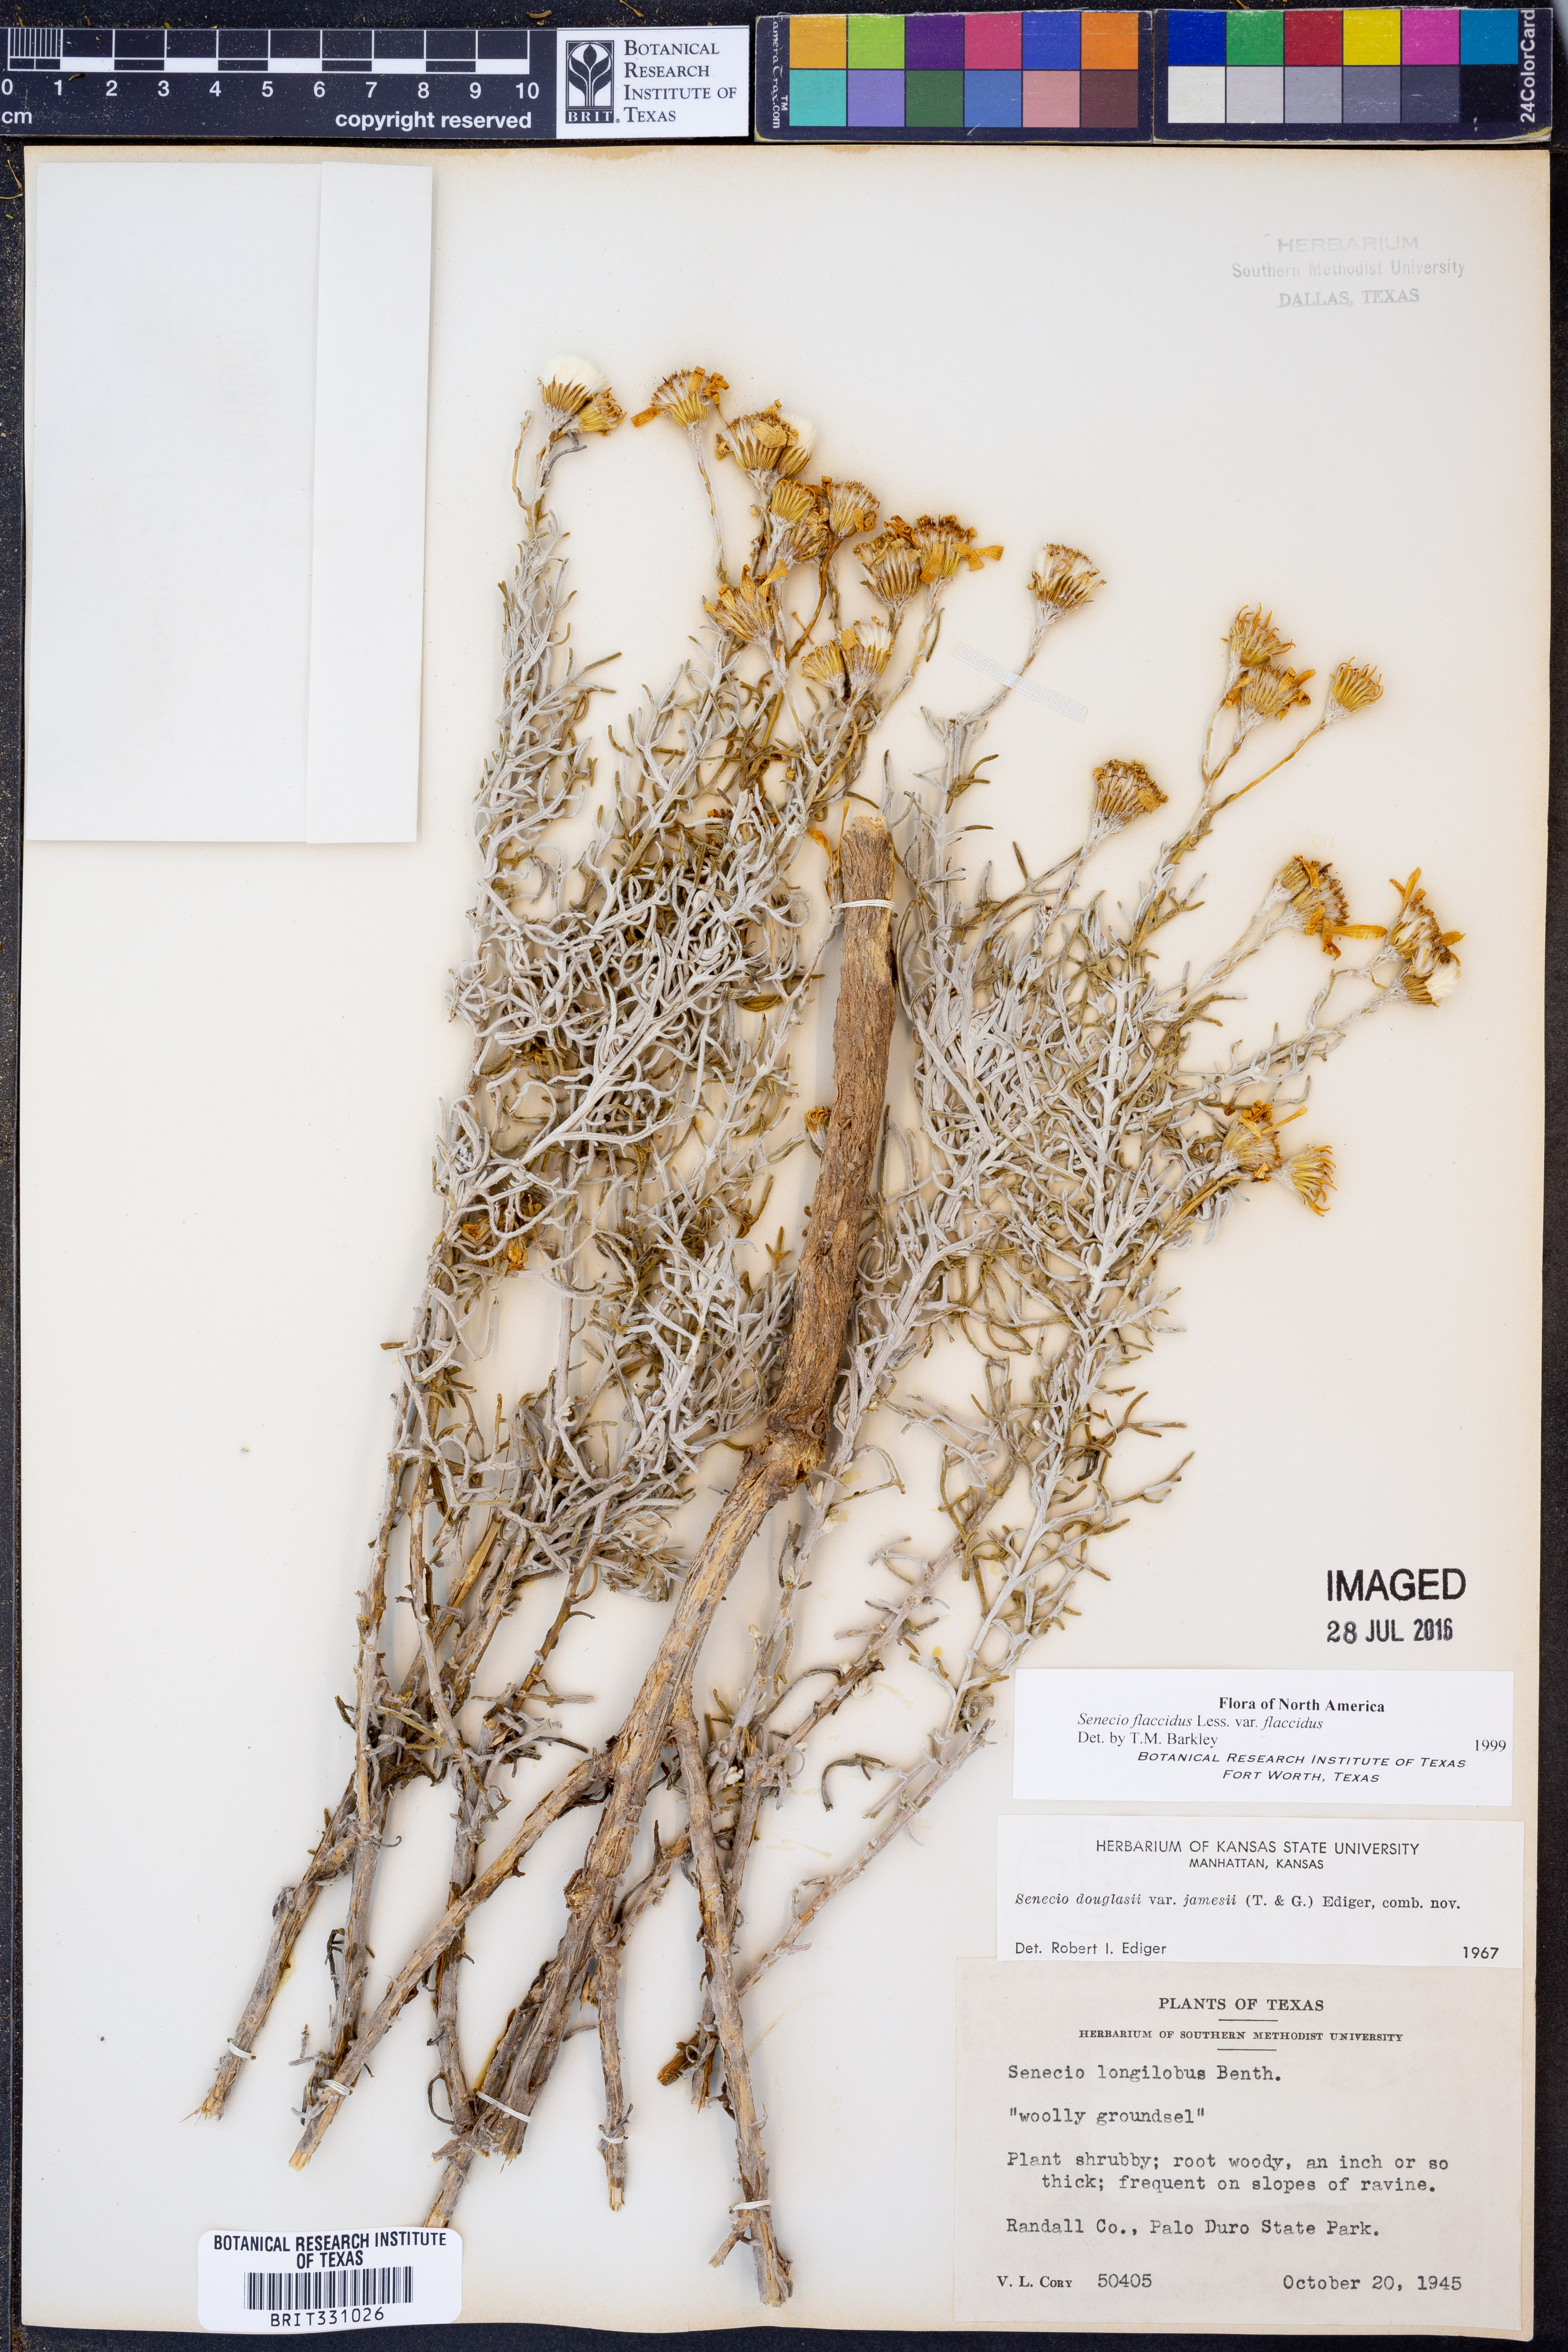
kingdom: Plantae
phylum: Tracheophyta
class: Magnoliopsida
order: Asterales
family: Asteraceae
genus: Senecio
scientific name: Senecio flaccidus
